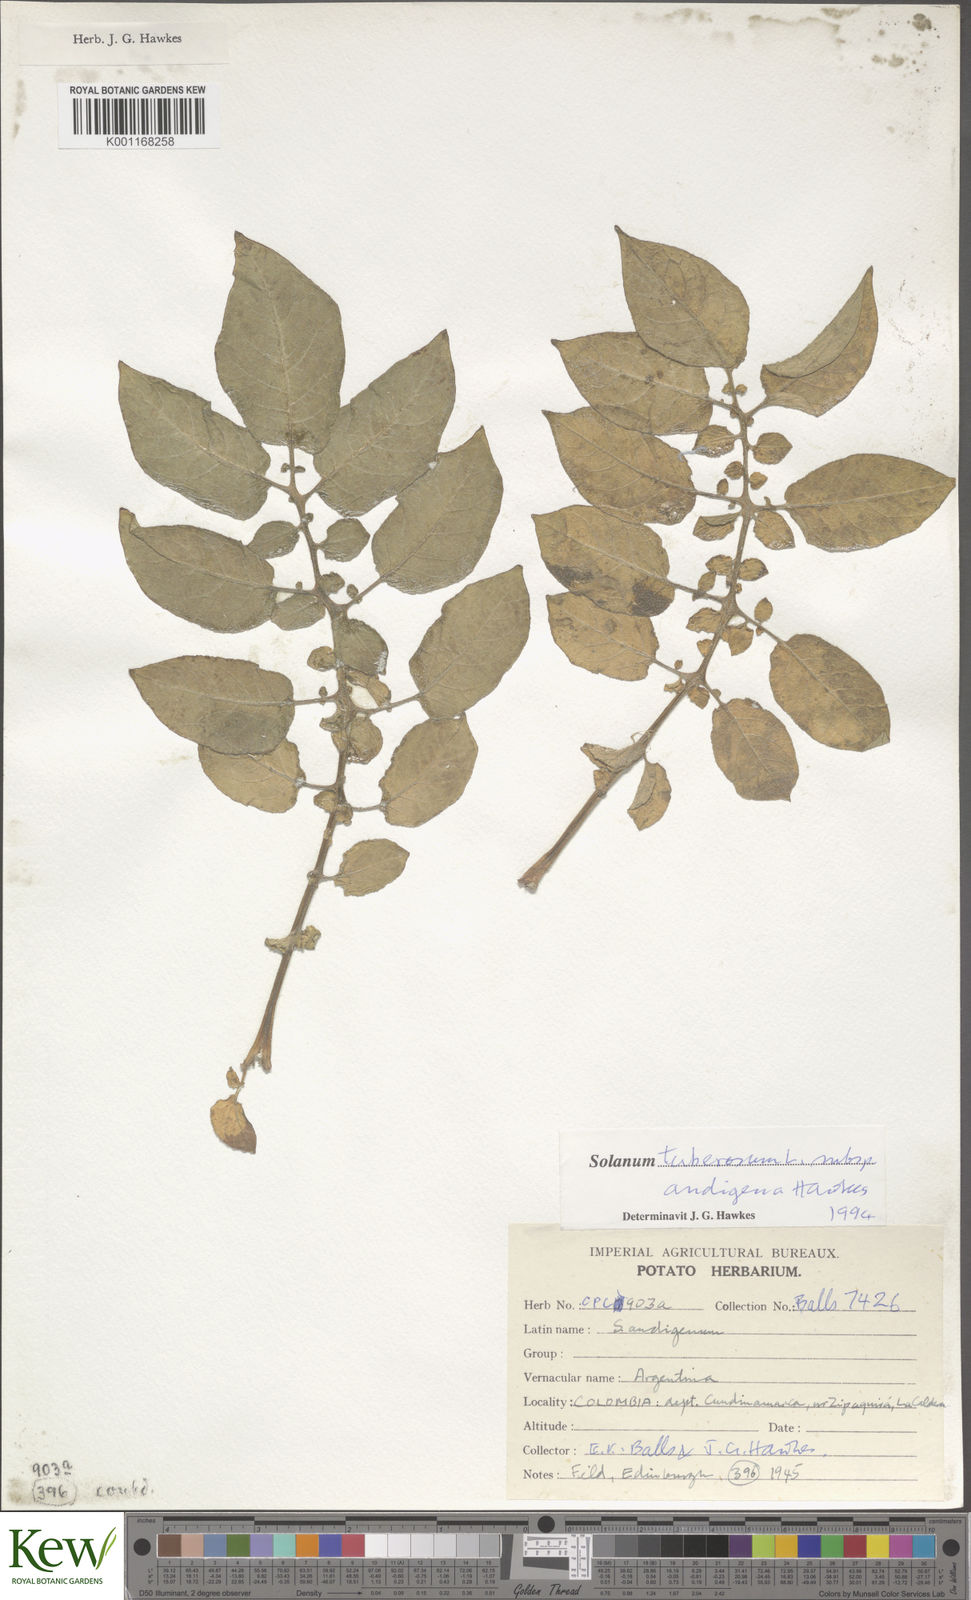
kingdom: Plantae
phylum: Tracheophyta
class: Magnoliopsida
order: Solanales
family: Solanaceae
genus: Solanum
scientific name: Solanum tuberosum
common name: Potato
